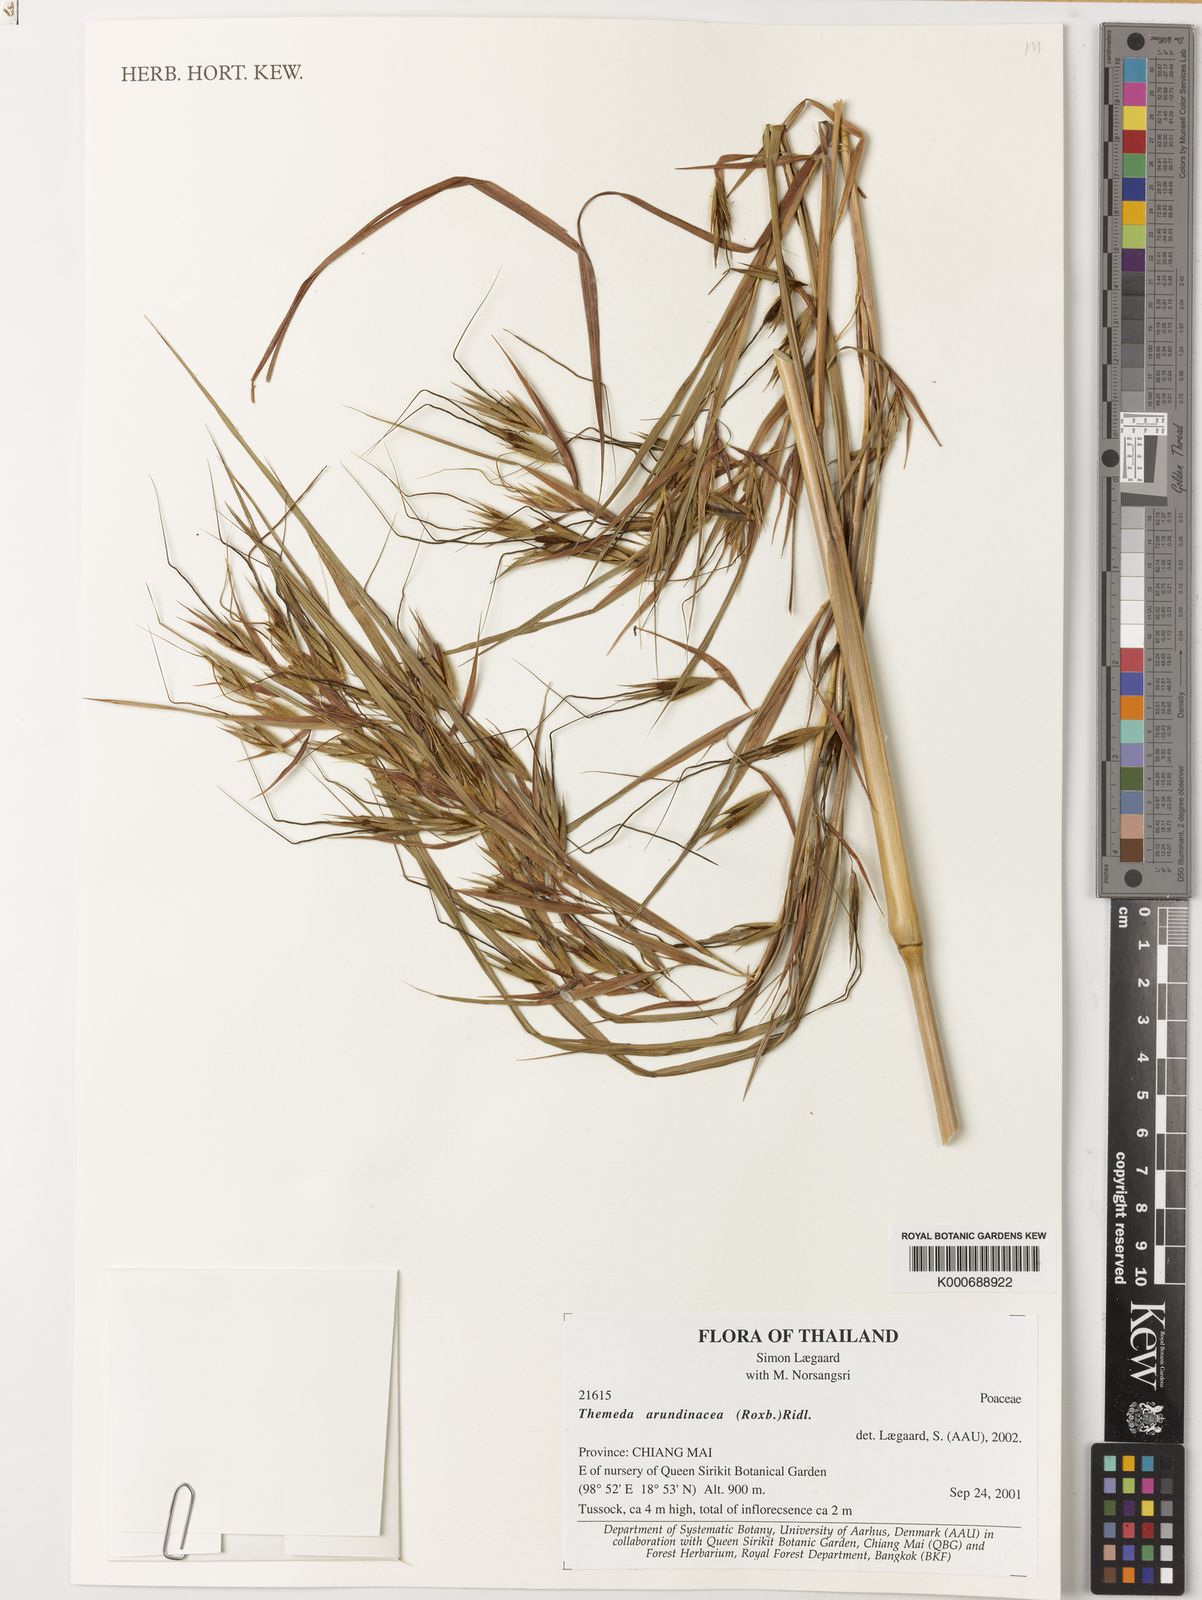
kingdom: Plantae
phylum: Tracheophyta
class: Liliopsida
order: Poales
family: Poaceae
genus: Themeda
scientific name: Themeda arundinacea
